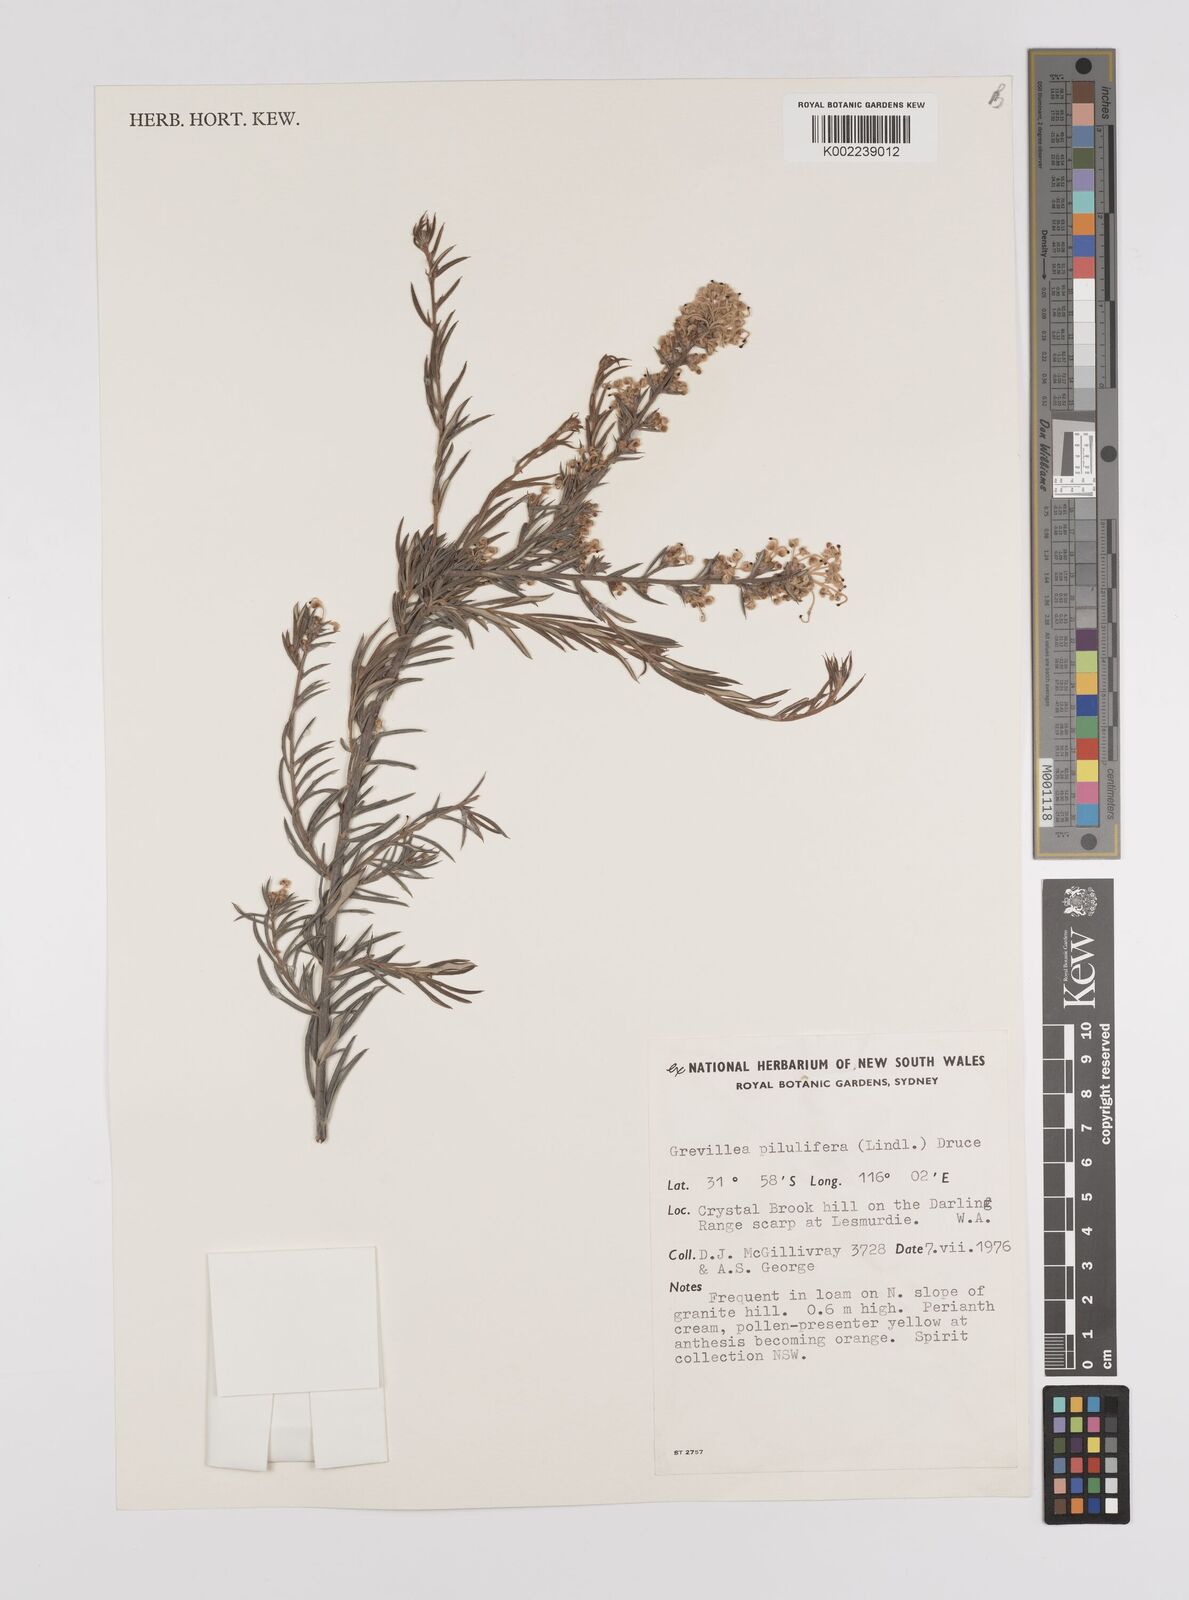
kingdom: Plantae
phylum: Tracheophyta
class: Magnoliopsida
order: Proteales
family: Proteaceae
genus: Grevillea
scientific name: Grevillea pilulifera
